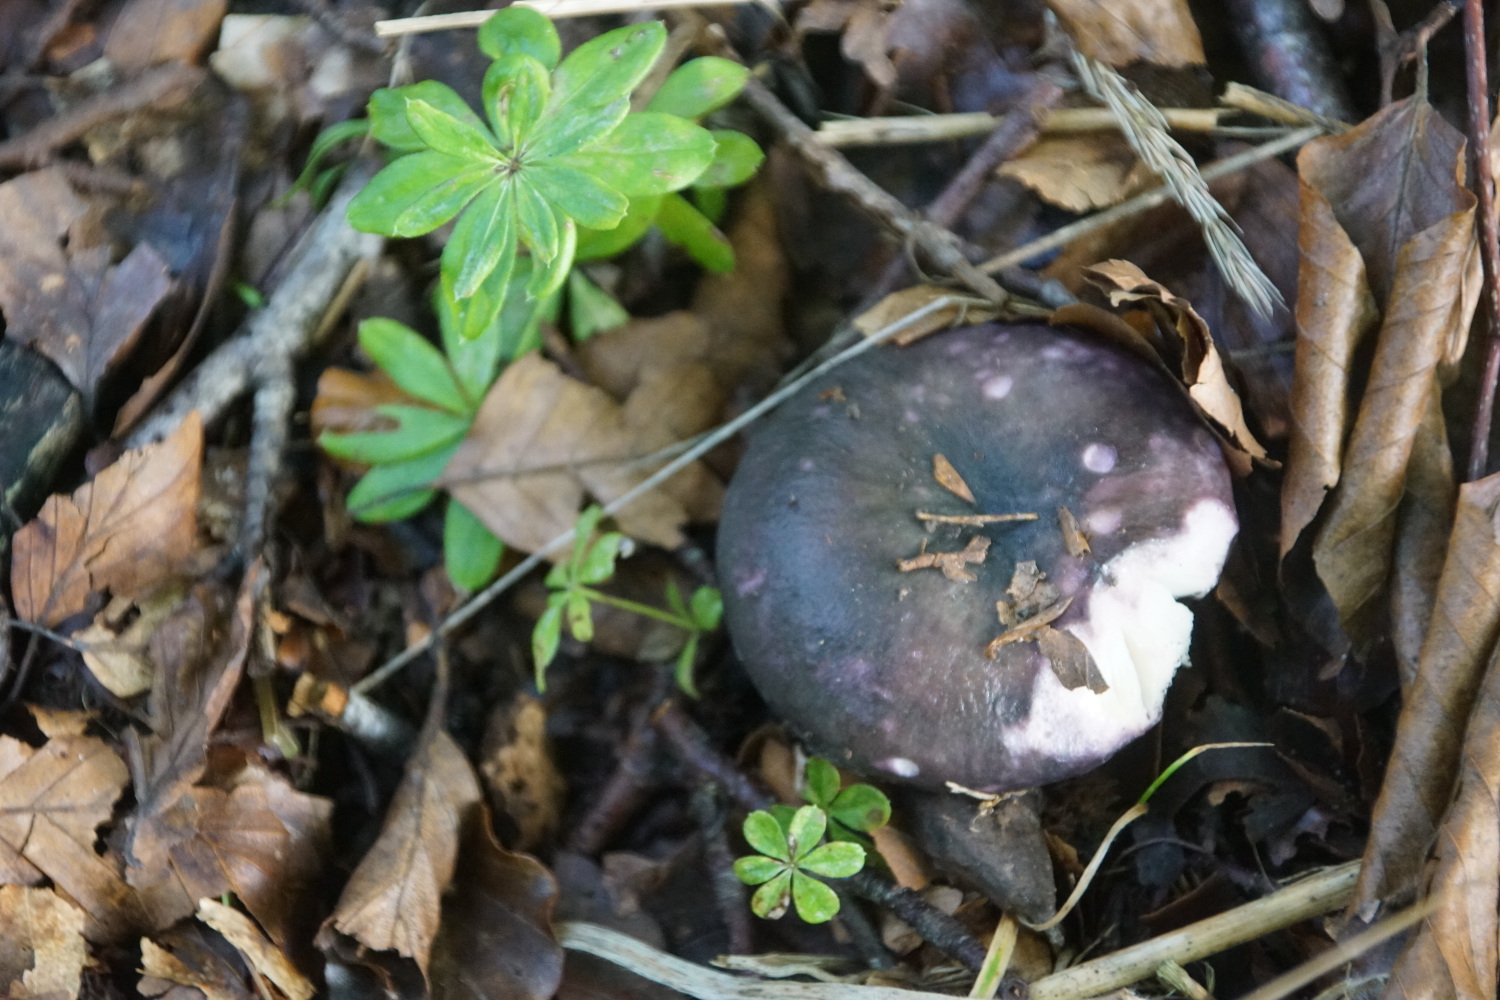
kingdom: Fungi
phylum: Basidiomycota
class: Agaricomycetes
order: Russulales
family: Russulaceae
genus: Russula
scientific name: Russula cyanoxantha
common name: broget skørhat
